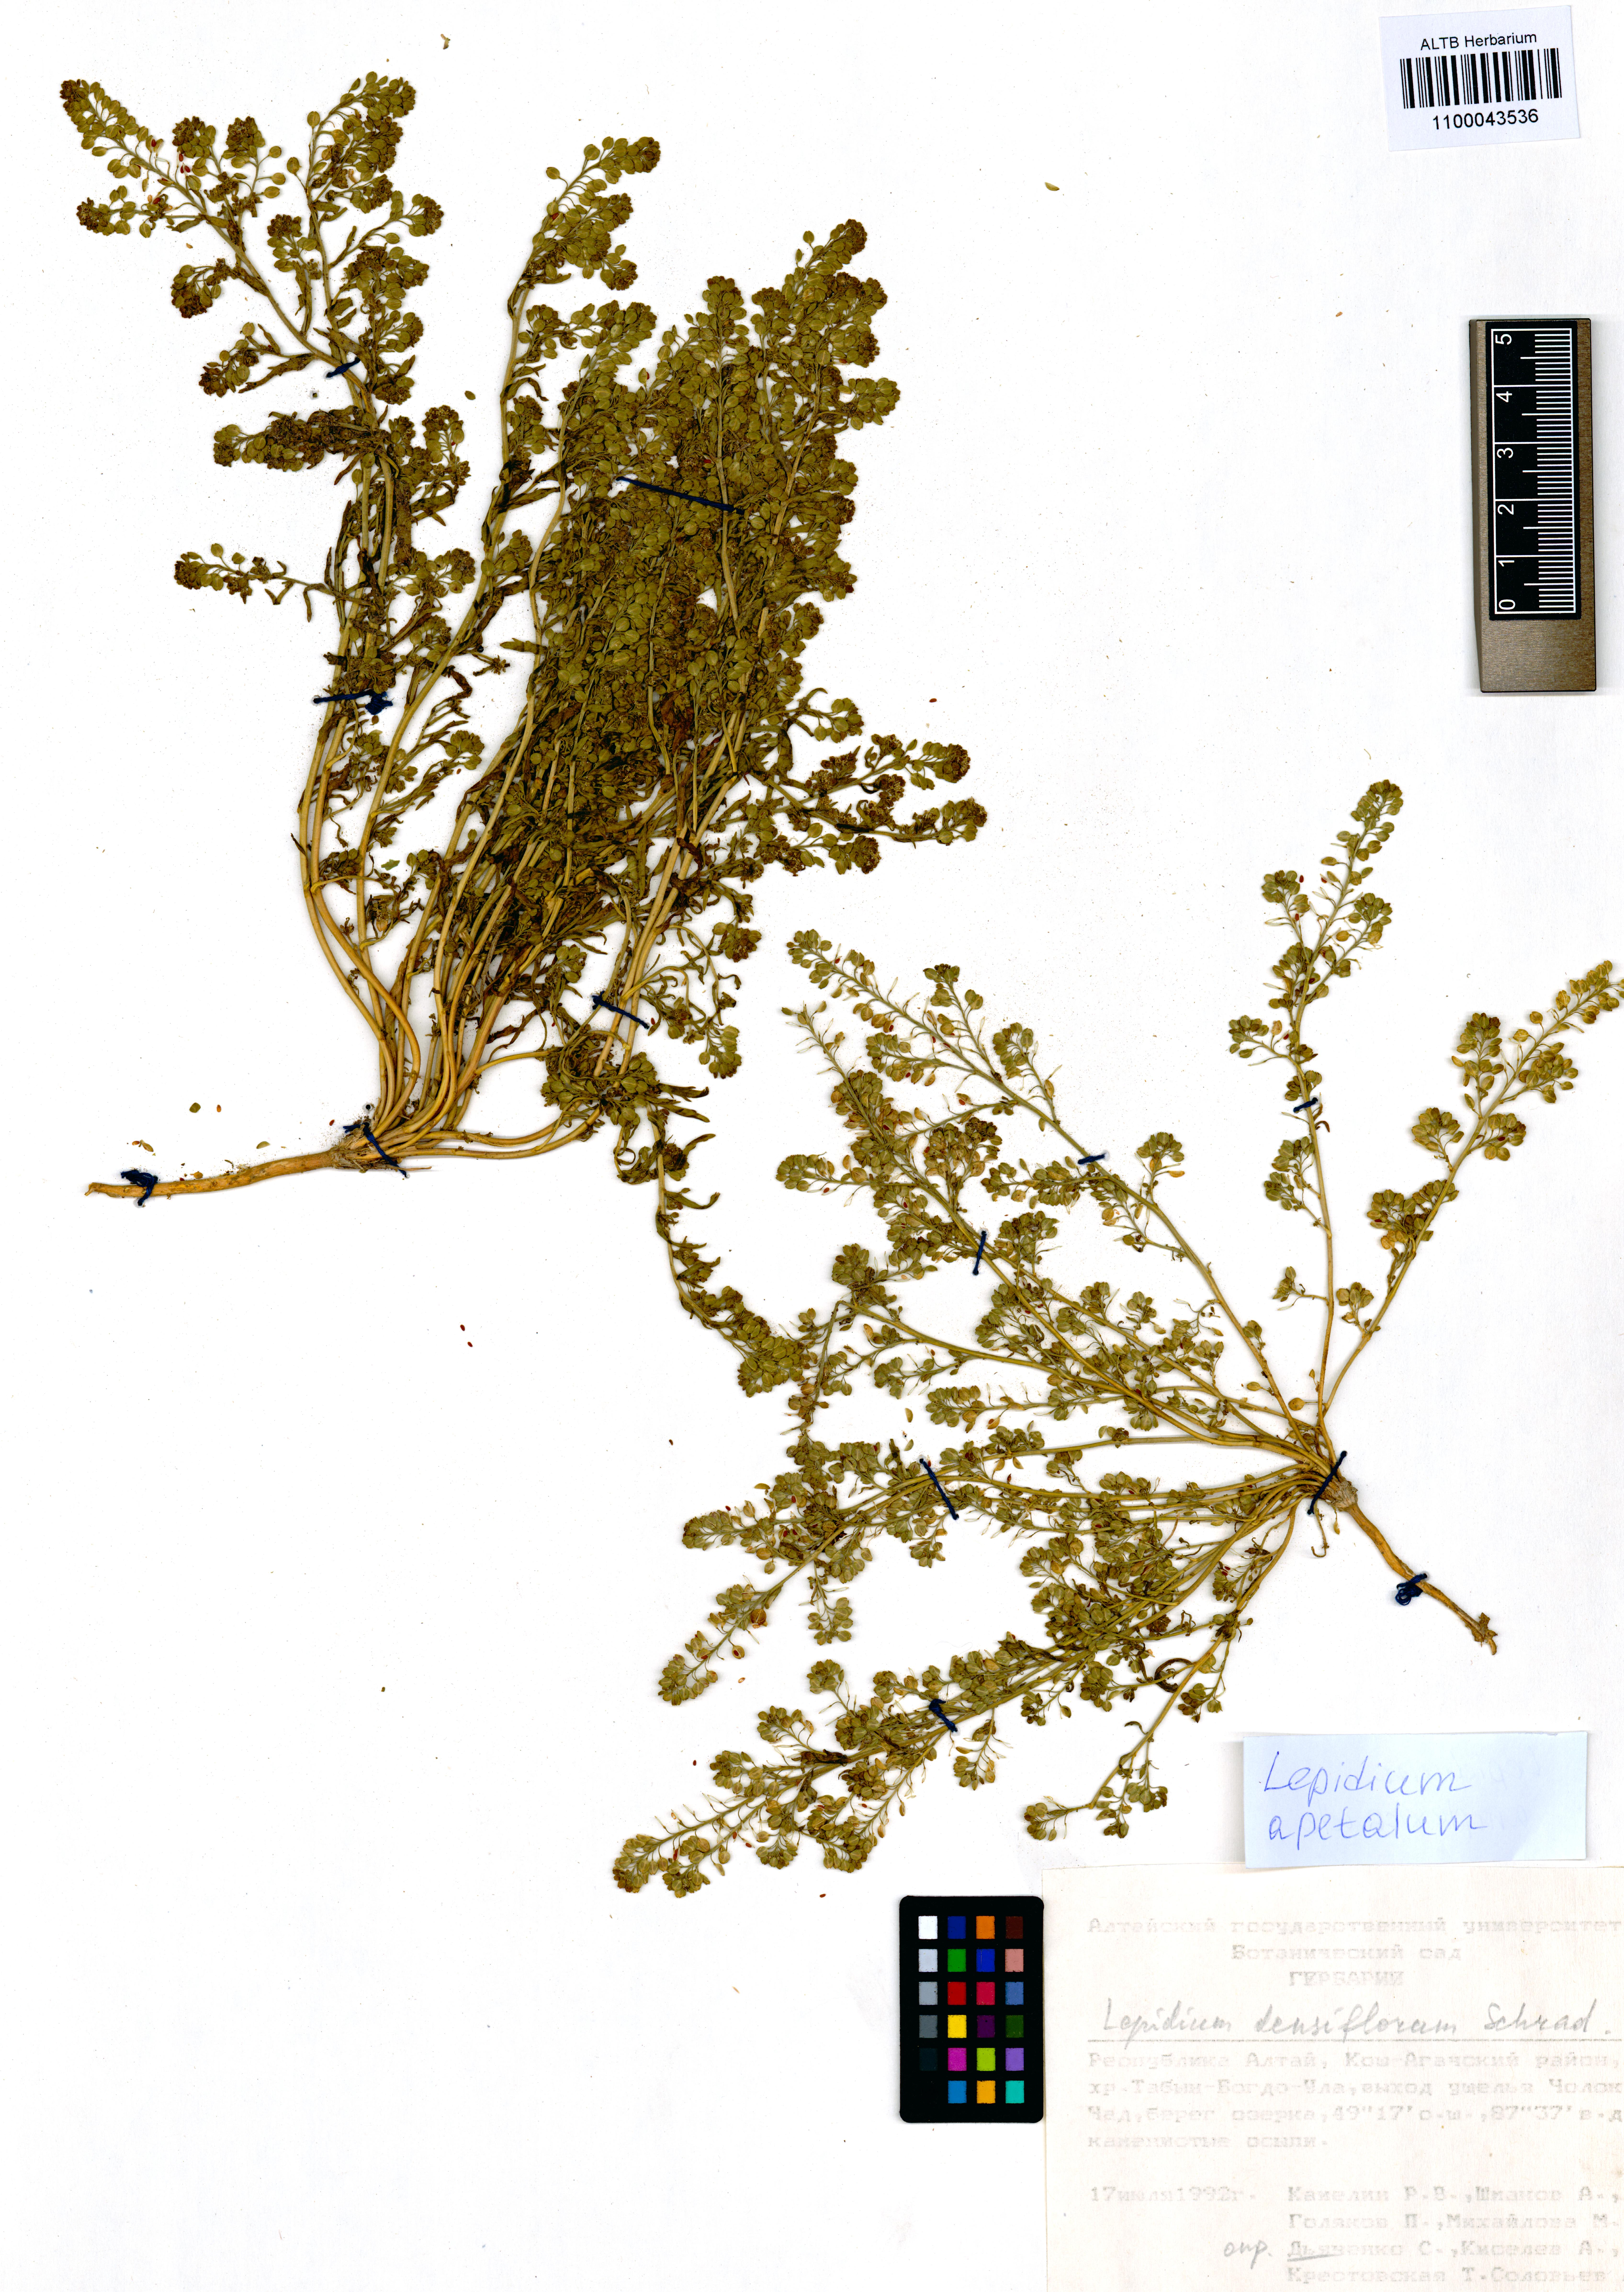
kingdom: Plantae
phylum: Tracheophyta
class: Magnoliopsida
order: Brassicales
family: Brassicaceae
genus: Lepidium
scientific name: Lepidium apetalum
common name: Pepperweed
